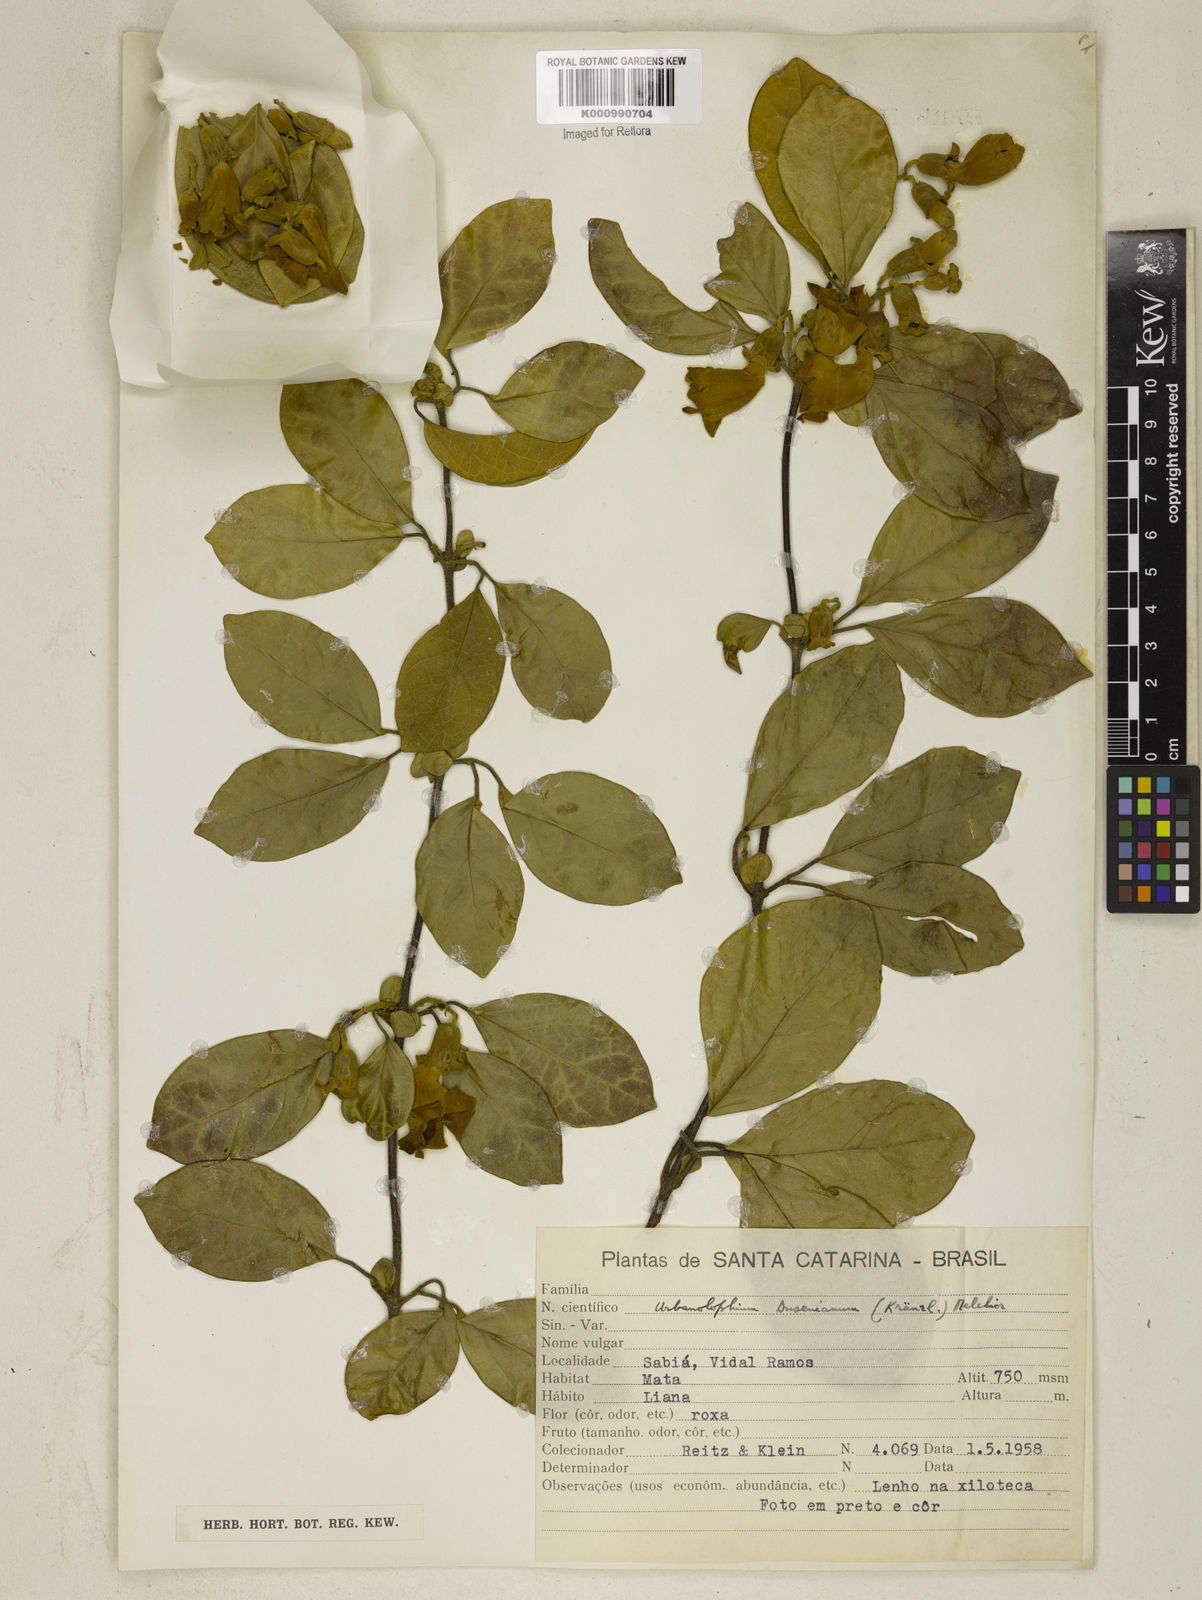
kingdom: Plantae
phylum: Tracheophyta
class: Magnoliopsida
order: Lamiales
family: Bignoniaceae
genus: Amphilophium
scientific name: Amphilophium dusenianum
